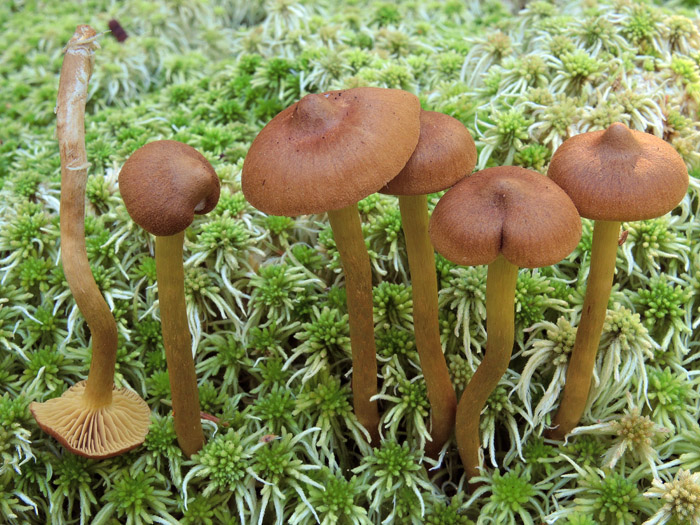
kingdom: Fungi
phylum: Basidiomycota
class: Agaricomycetes
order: Agaricales
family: Cortinariaceae
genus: Cortinarius
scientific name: Cortinarius
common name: gulbladet slørhat
